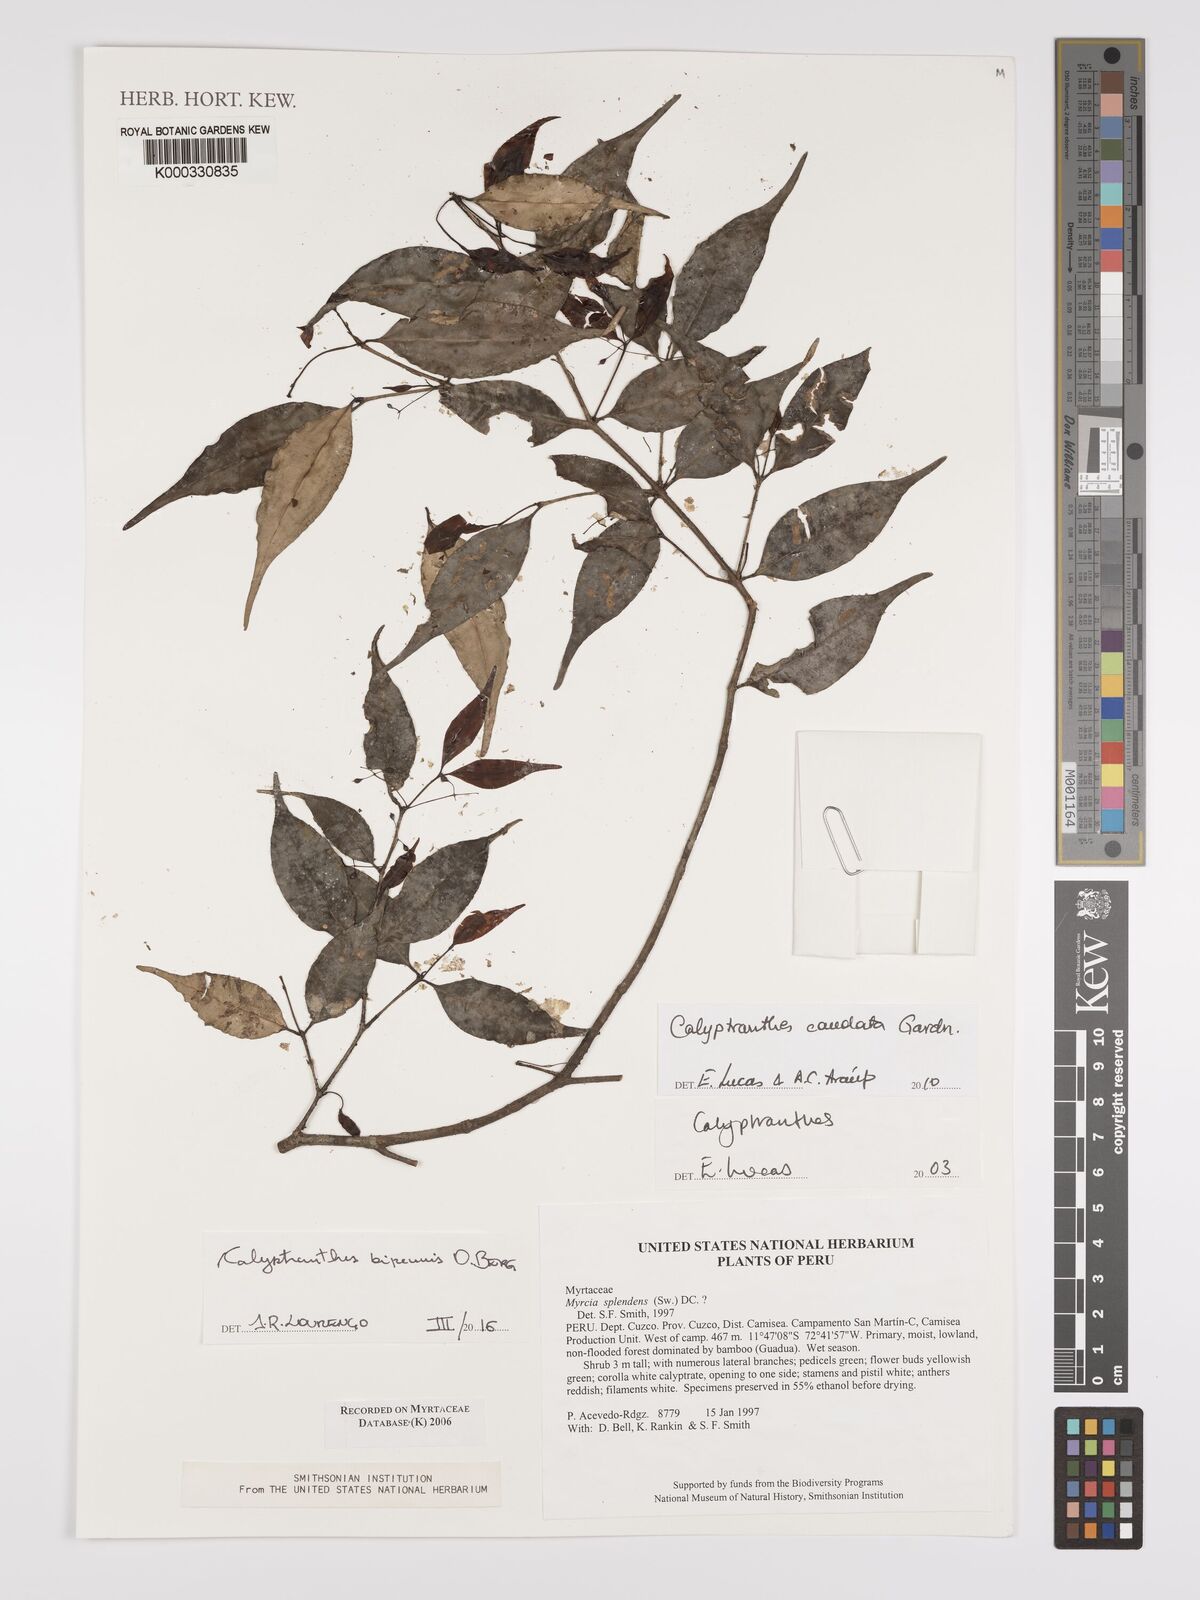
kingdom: Plantae
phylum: Tracheophyta
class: Magnoliopsida
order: Myrtales
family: Myrtaceae
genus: Calyptranthes
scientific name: Calyptranthes
